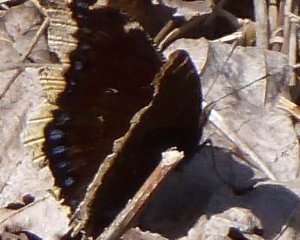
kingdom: Animalia
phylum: Arthropoda
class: Insecta
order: Lepidoptera
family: Nymphalidae
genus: Nymphalis
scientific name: Nymphalis antiopa
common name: Mourning Cloak
